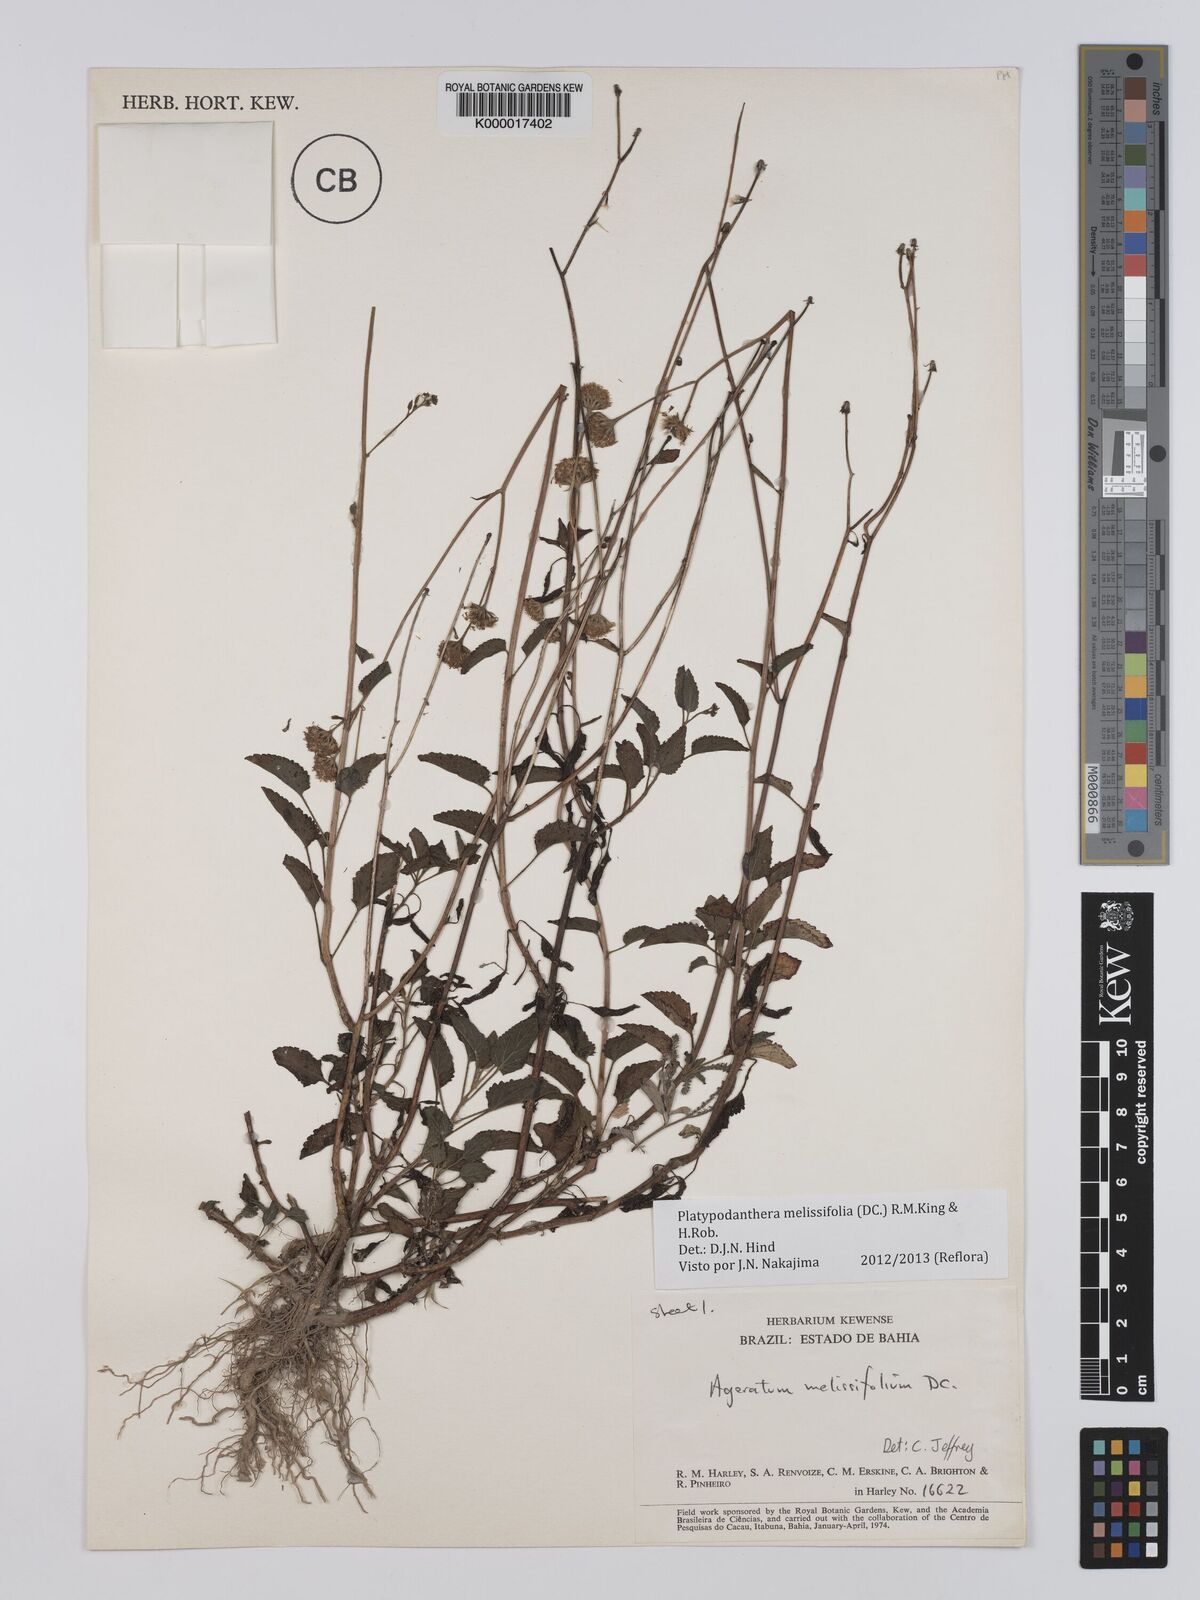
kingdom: Plantae
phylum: Tracheophyta
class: Magnoliopsida
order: Asterales
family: Asteraceae
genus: Platypodanthera
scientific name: Platypodanthera melissifolia
